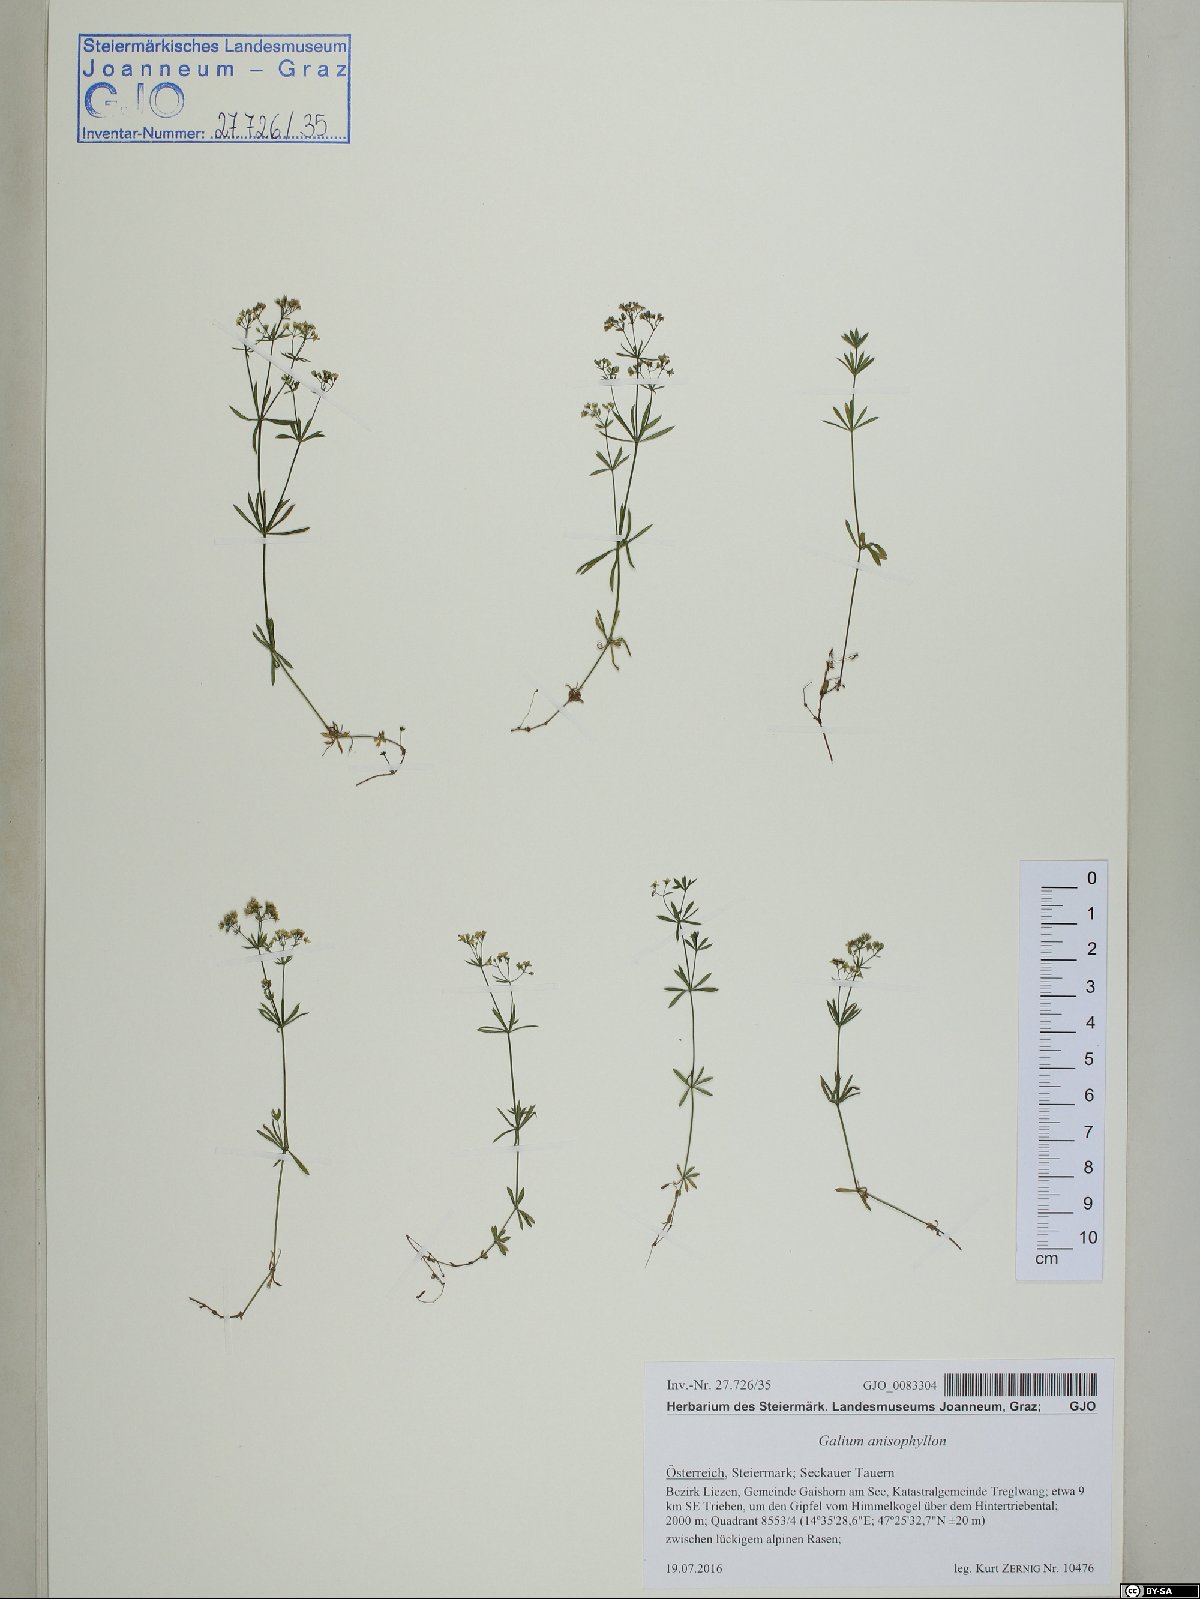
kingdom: Plantae
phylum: Tracheophyta
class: Magnoliopsida
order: Gentianales
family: Rubiaceae
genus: Galium
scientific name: Galium anisophyllon
